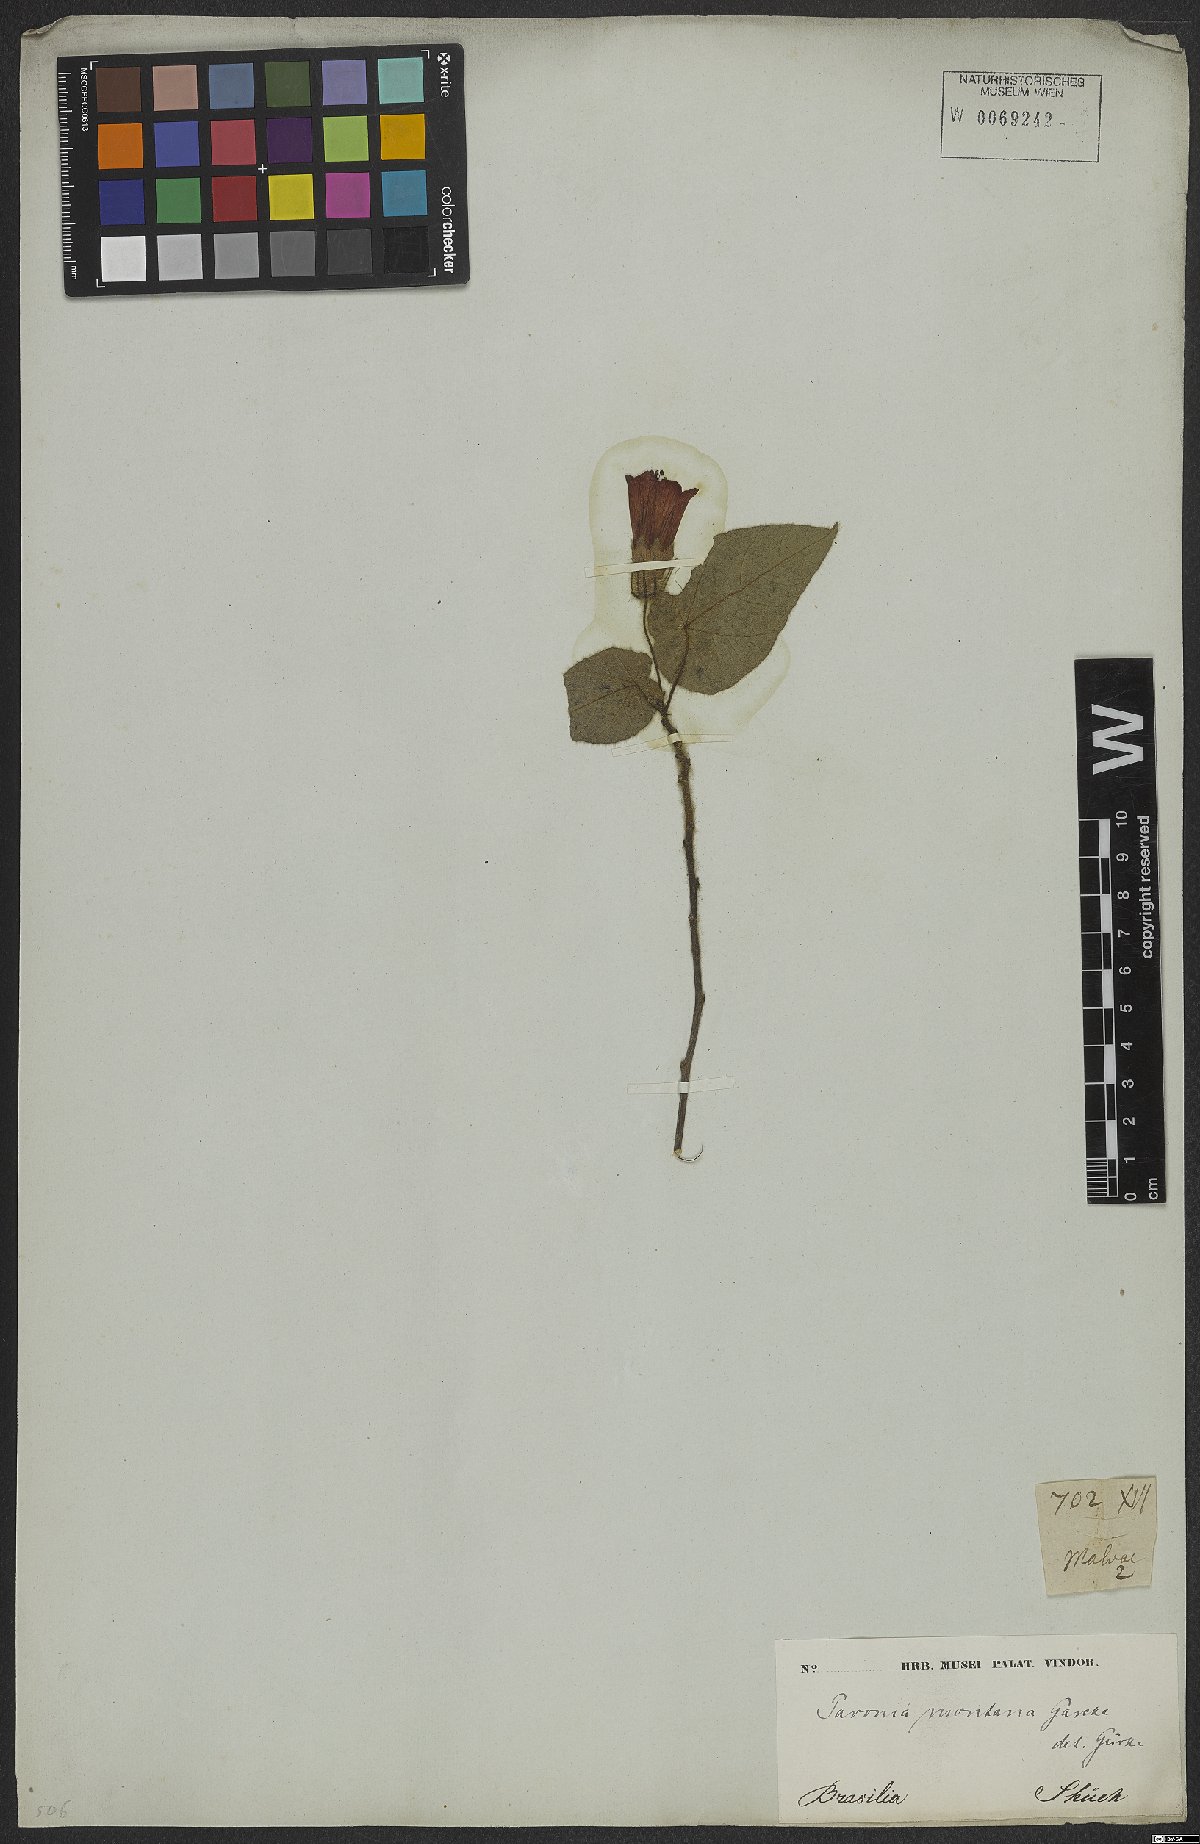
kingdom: Plantae
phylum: Tracheophyta
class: Magnoliopsida
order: Malvales
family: Malvaceae
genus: Pavonia
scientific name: Pavonia montana
